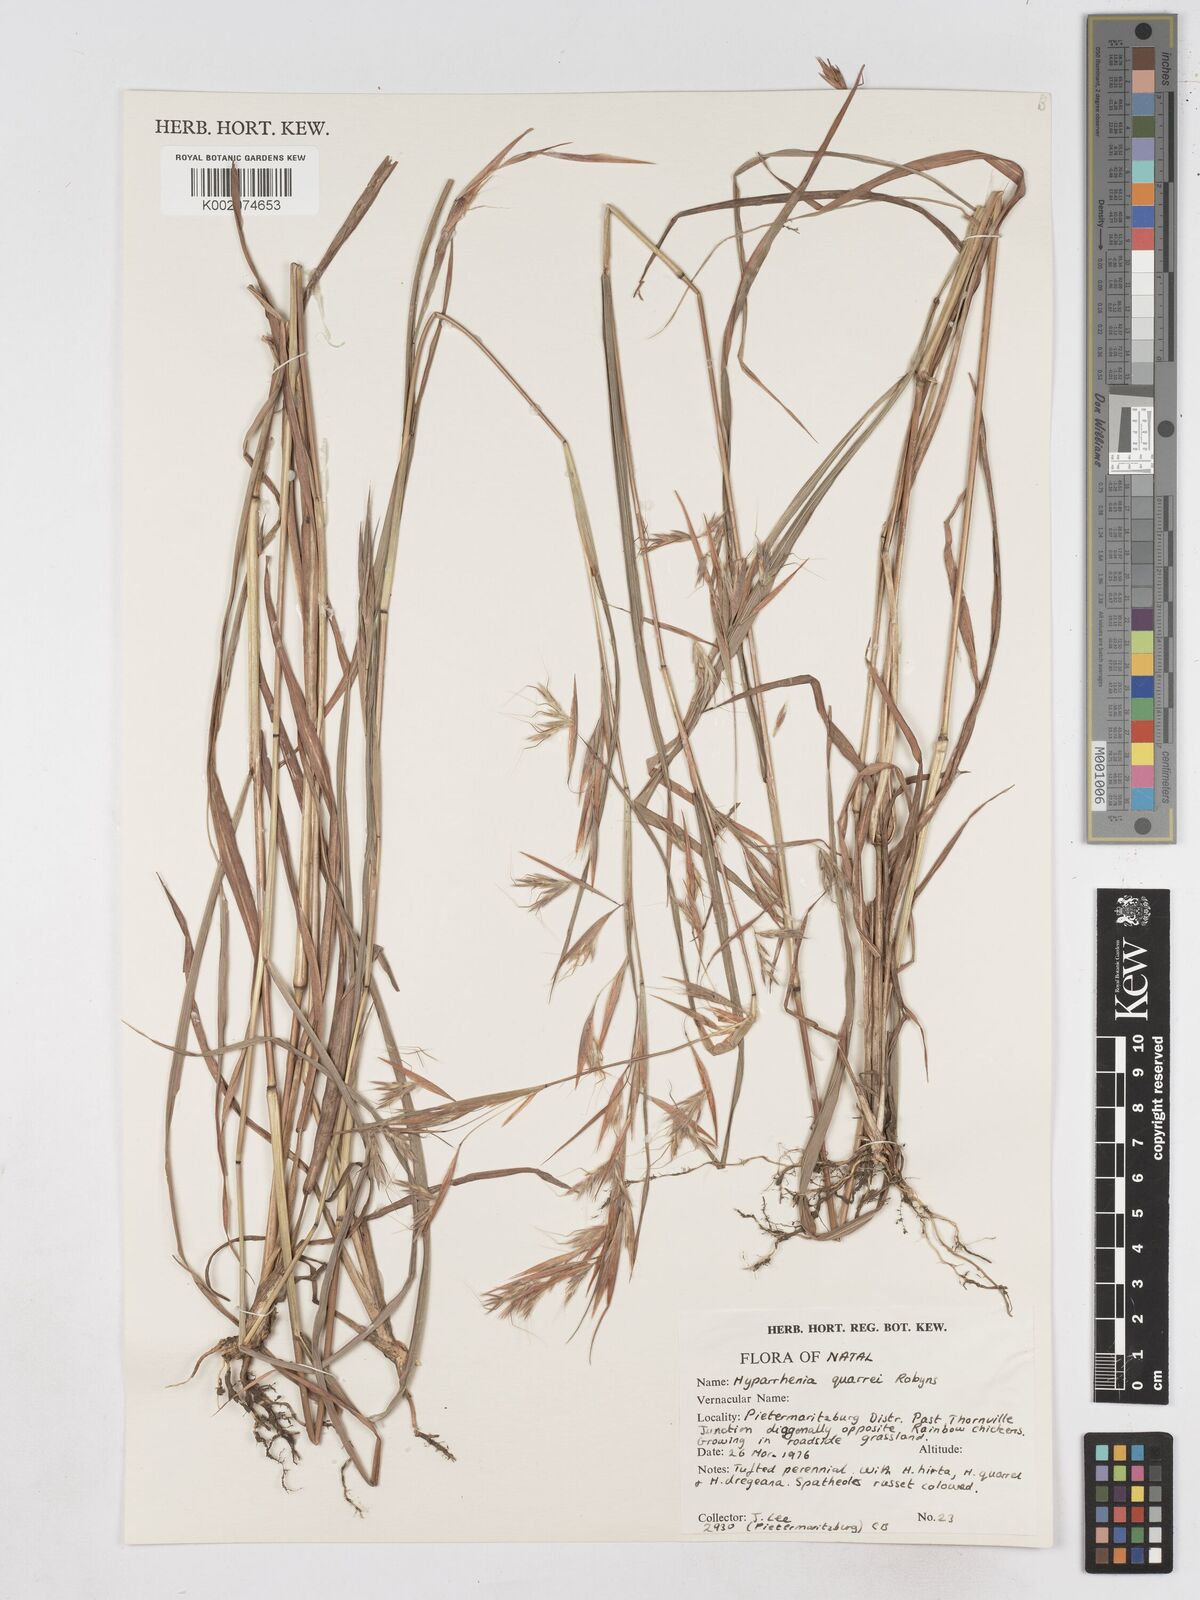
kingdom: Plantae
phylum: Tracheophyta
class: Liliopsida
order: Poales
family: Poaceae
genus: Hyparrhenia
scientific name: Hyparrhenia quarrei
